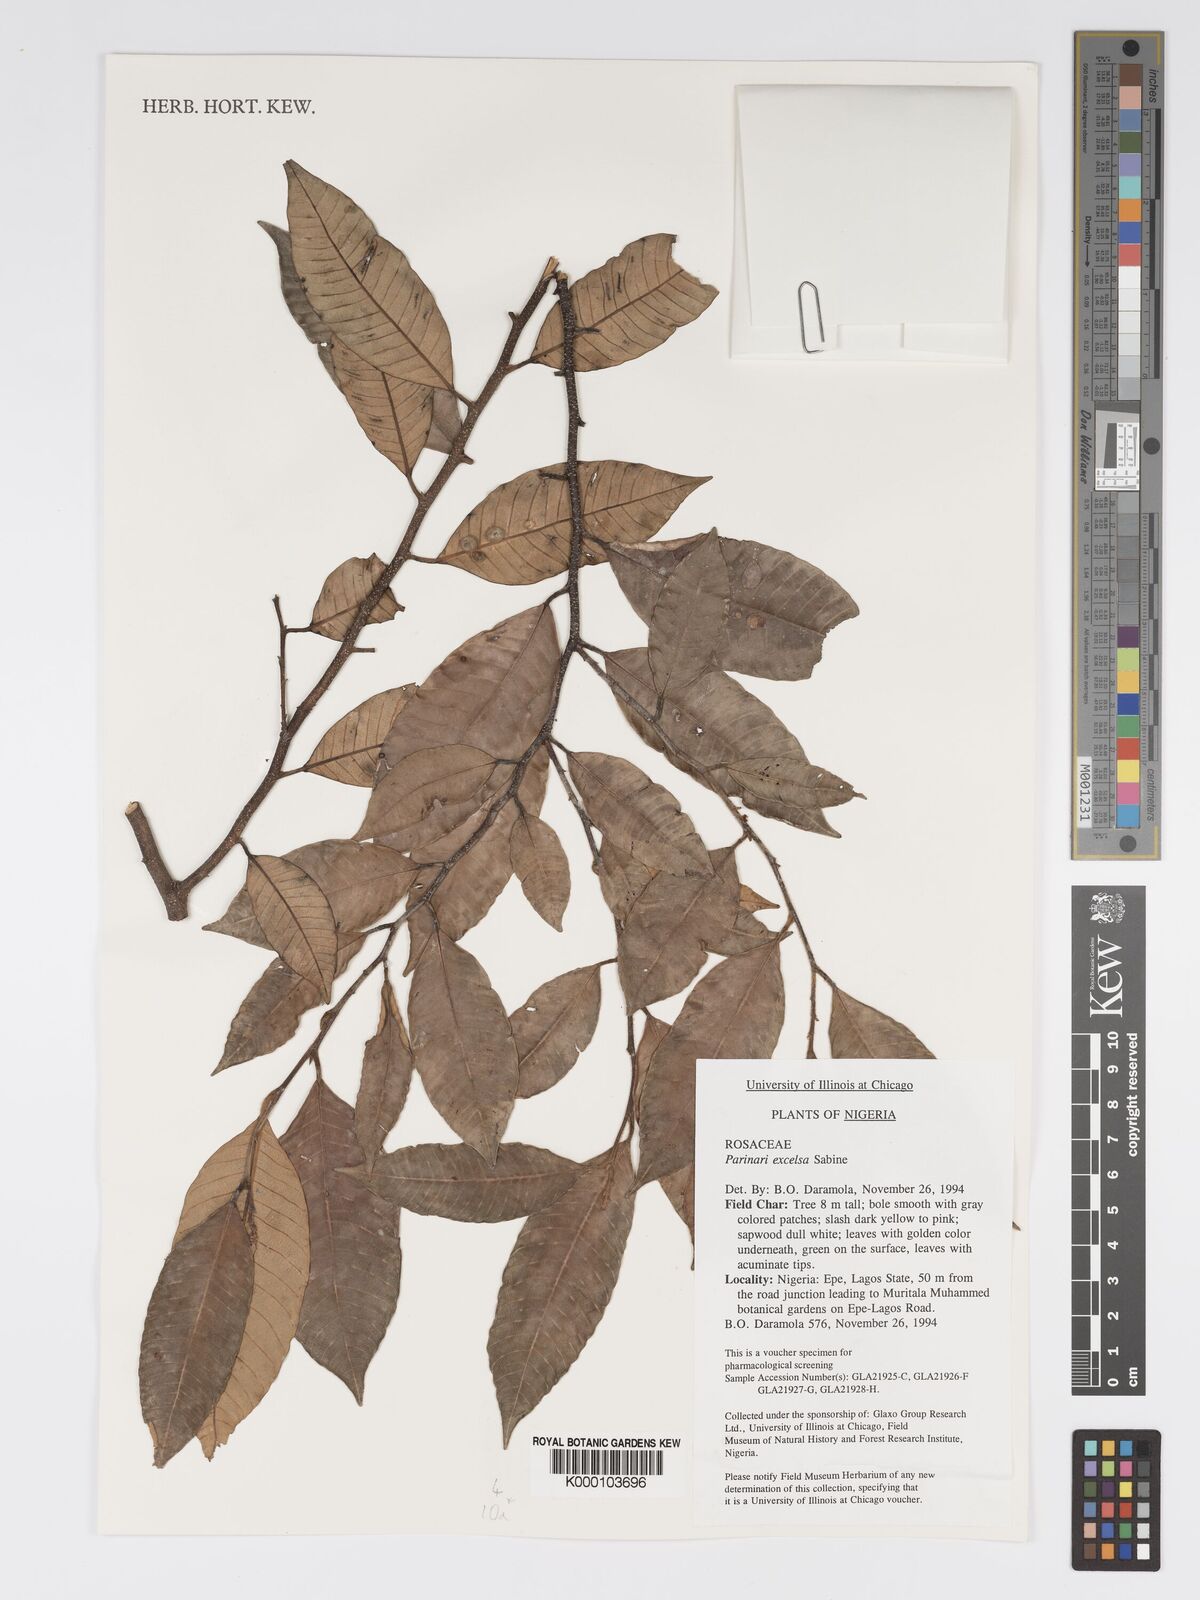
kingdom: Plantae
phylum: Tracheophyta
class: Magnoliopsida
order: Malpighiales
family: Chrysobalanaceae
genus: Parinari
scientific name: Parinari excelsa
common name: Guinea-plum
